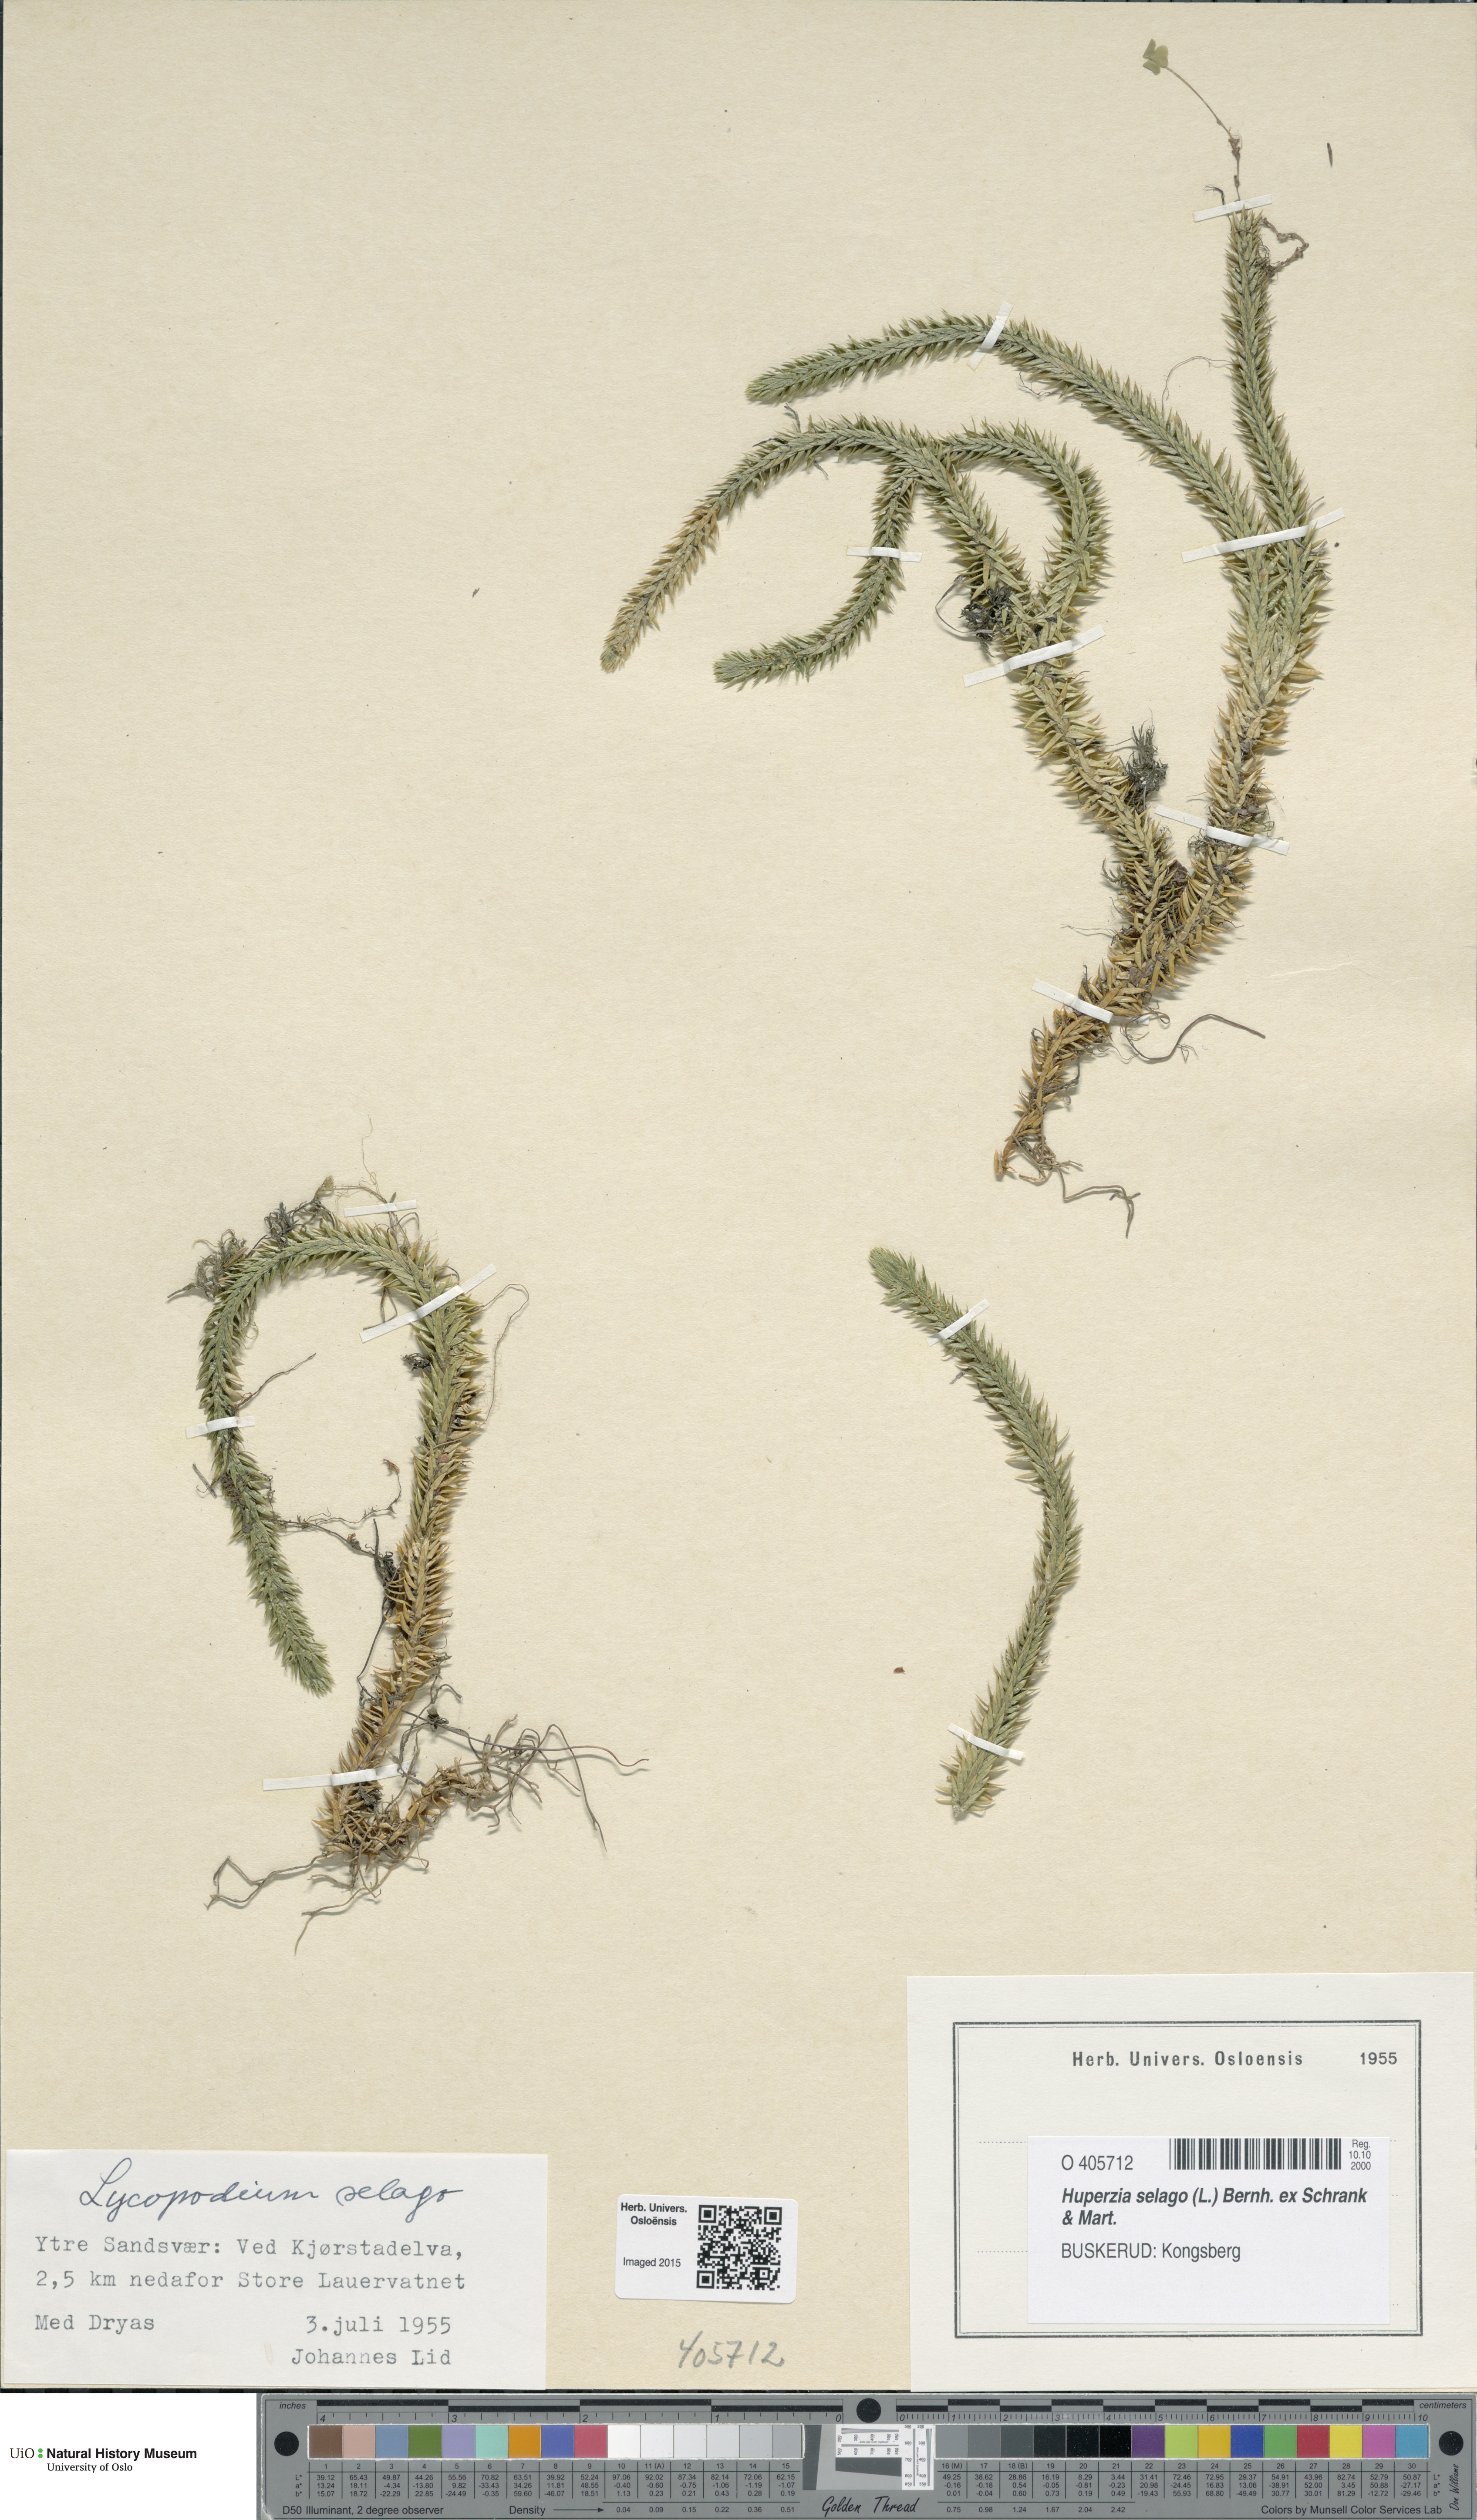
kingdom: Plantae
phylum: Tracheophyta
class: Lycopodiopsida
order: Lycopodiales
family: Lycopodiaceae
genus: Huperzia
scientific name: Huperzia selago
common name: Northern firmoss
